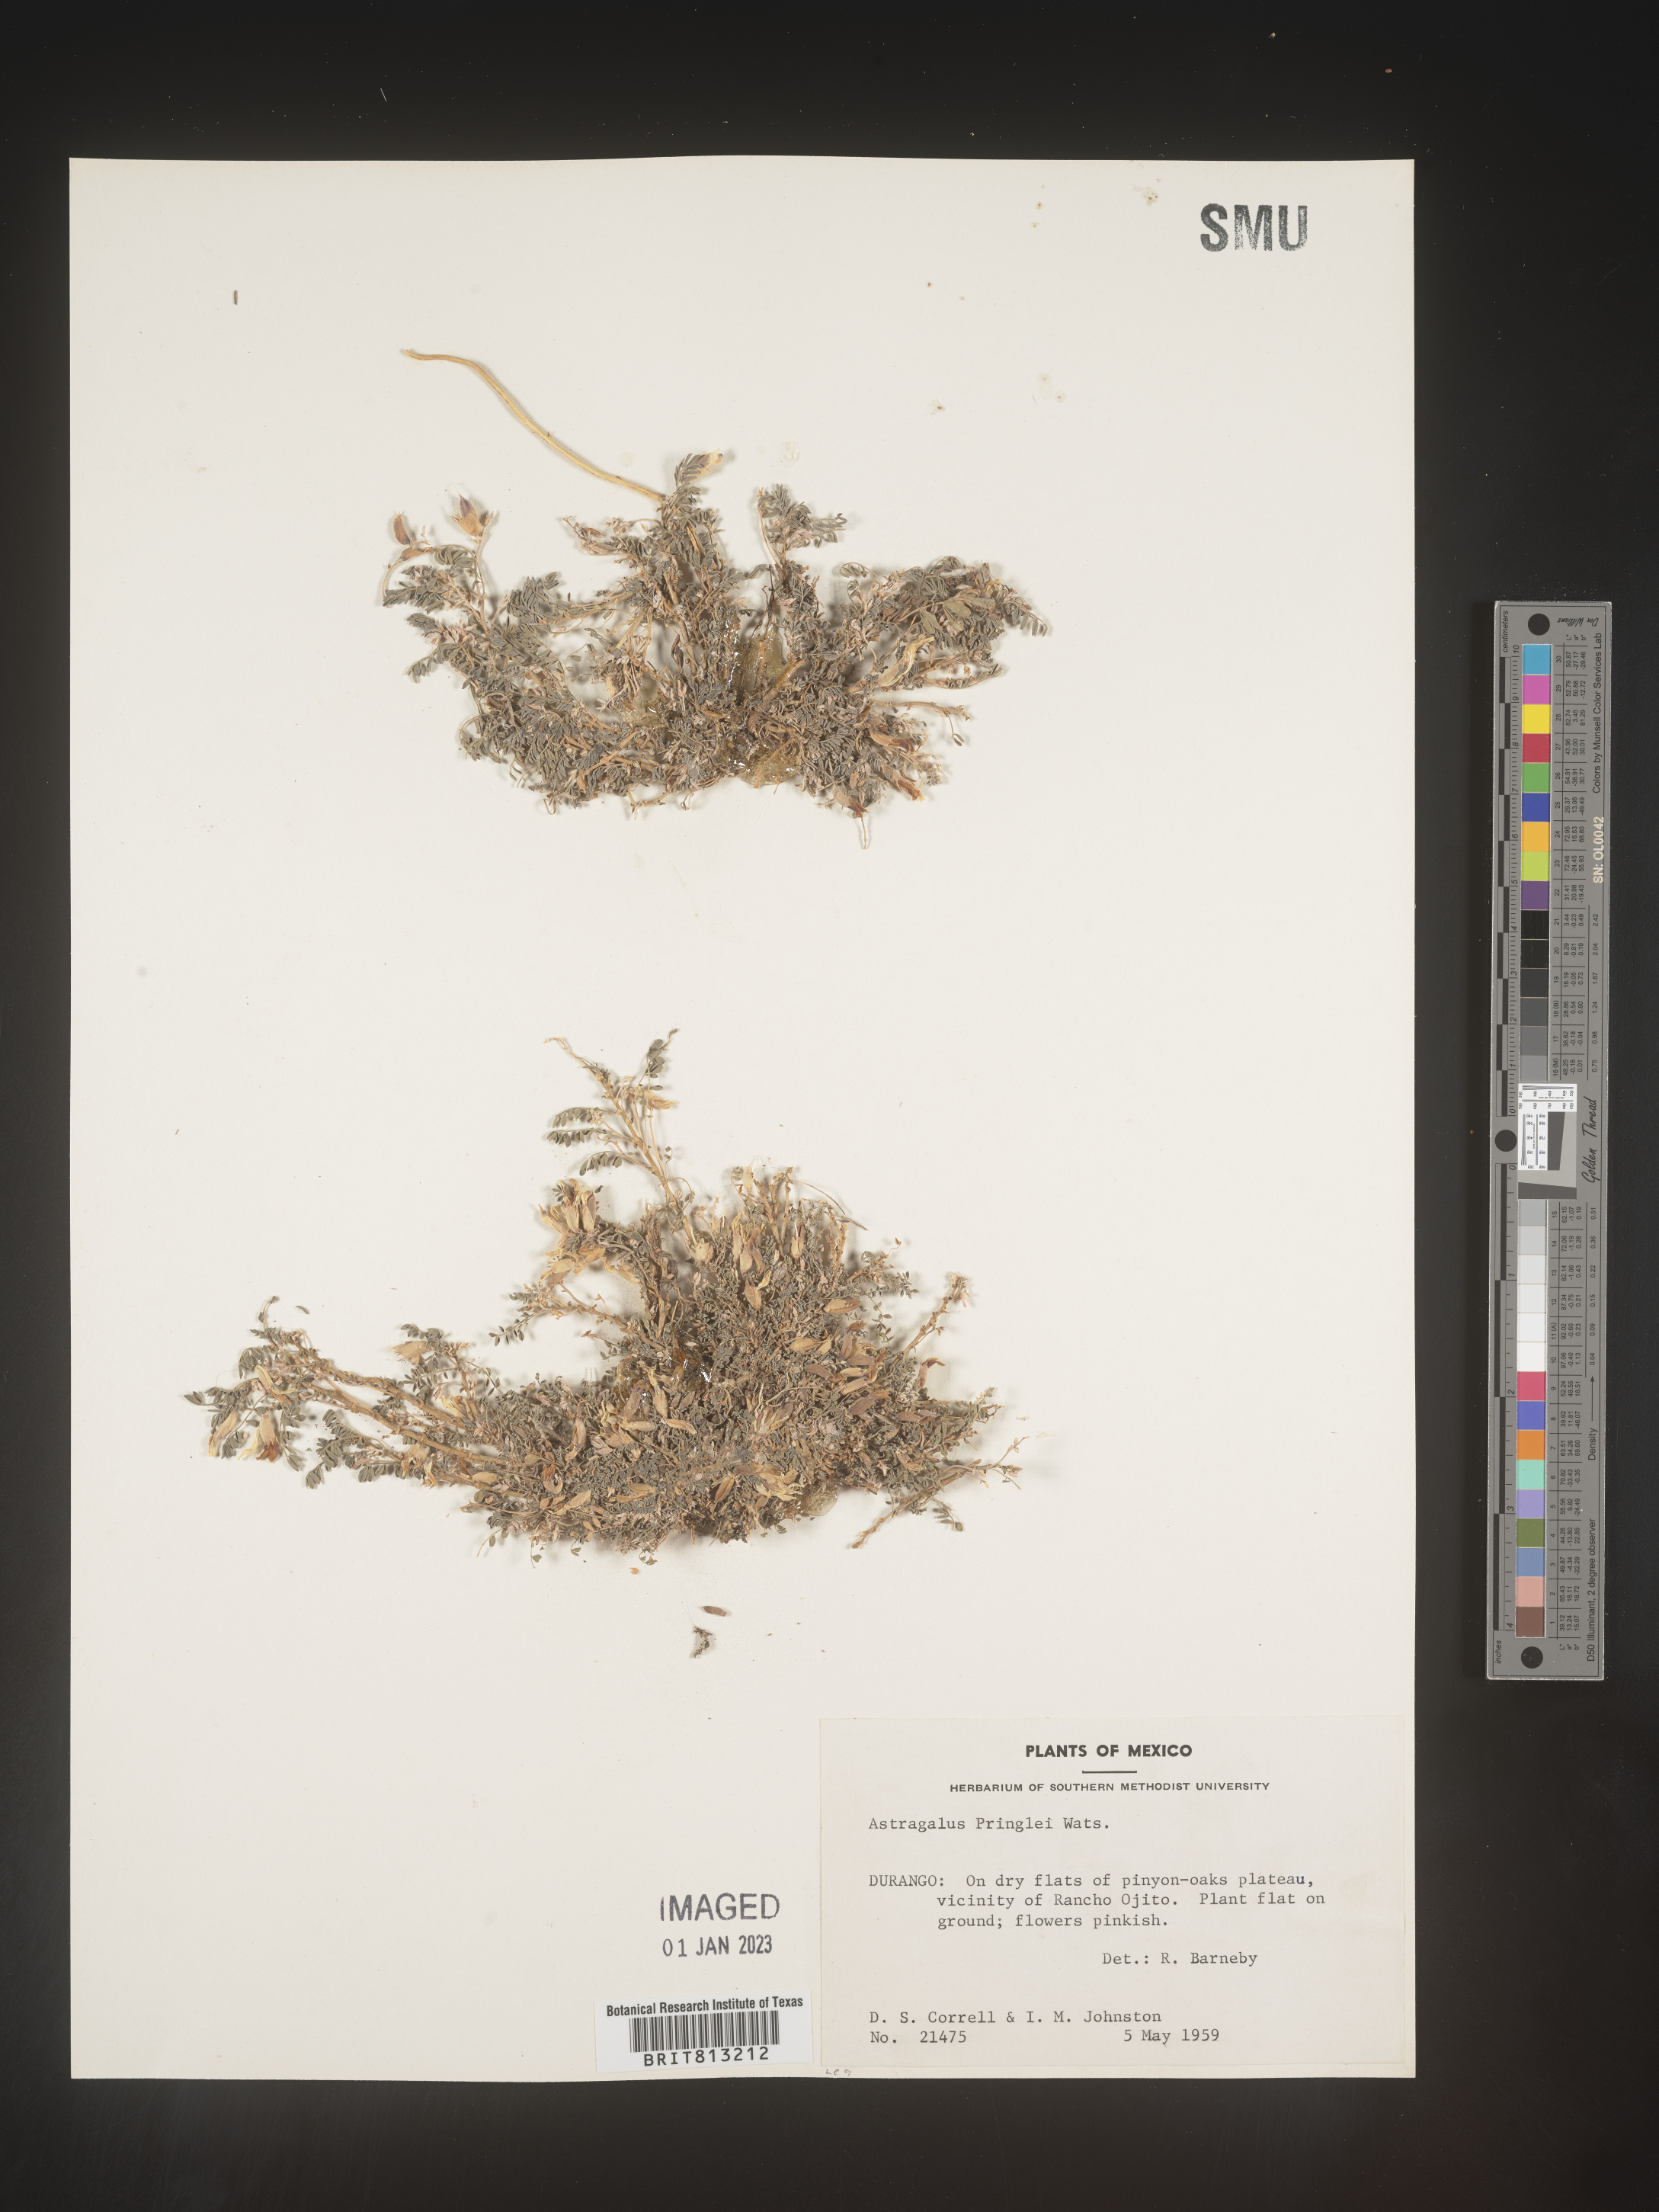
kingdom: Plantae
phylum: Tracheophyta
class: Magnoliopsida
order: Fabales
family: Fabaceae
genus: Astragalus
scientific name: Astragalus
